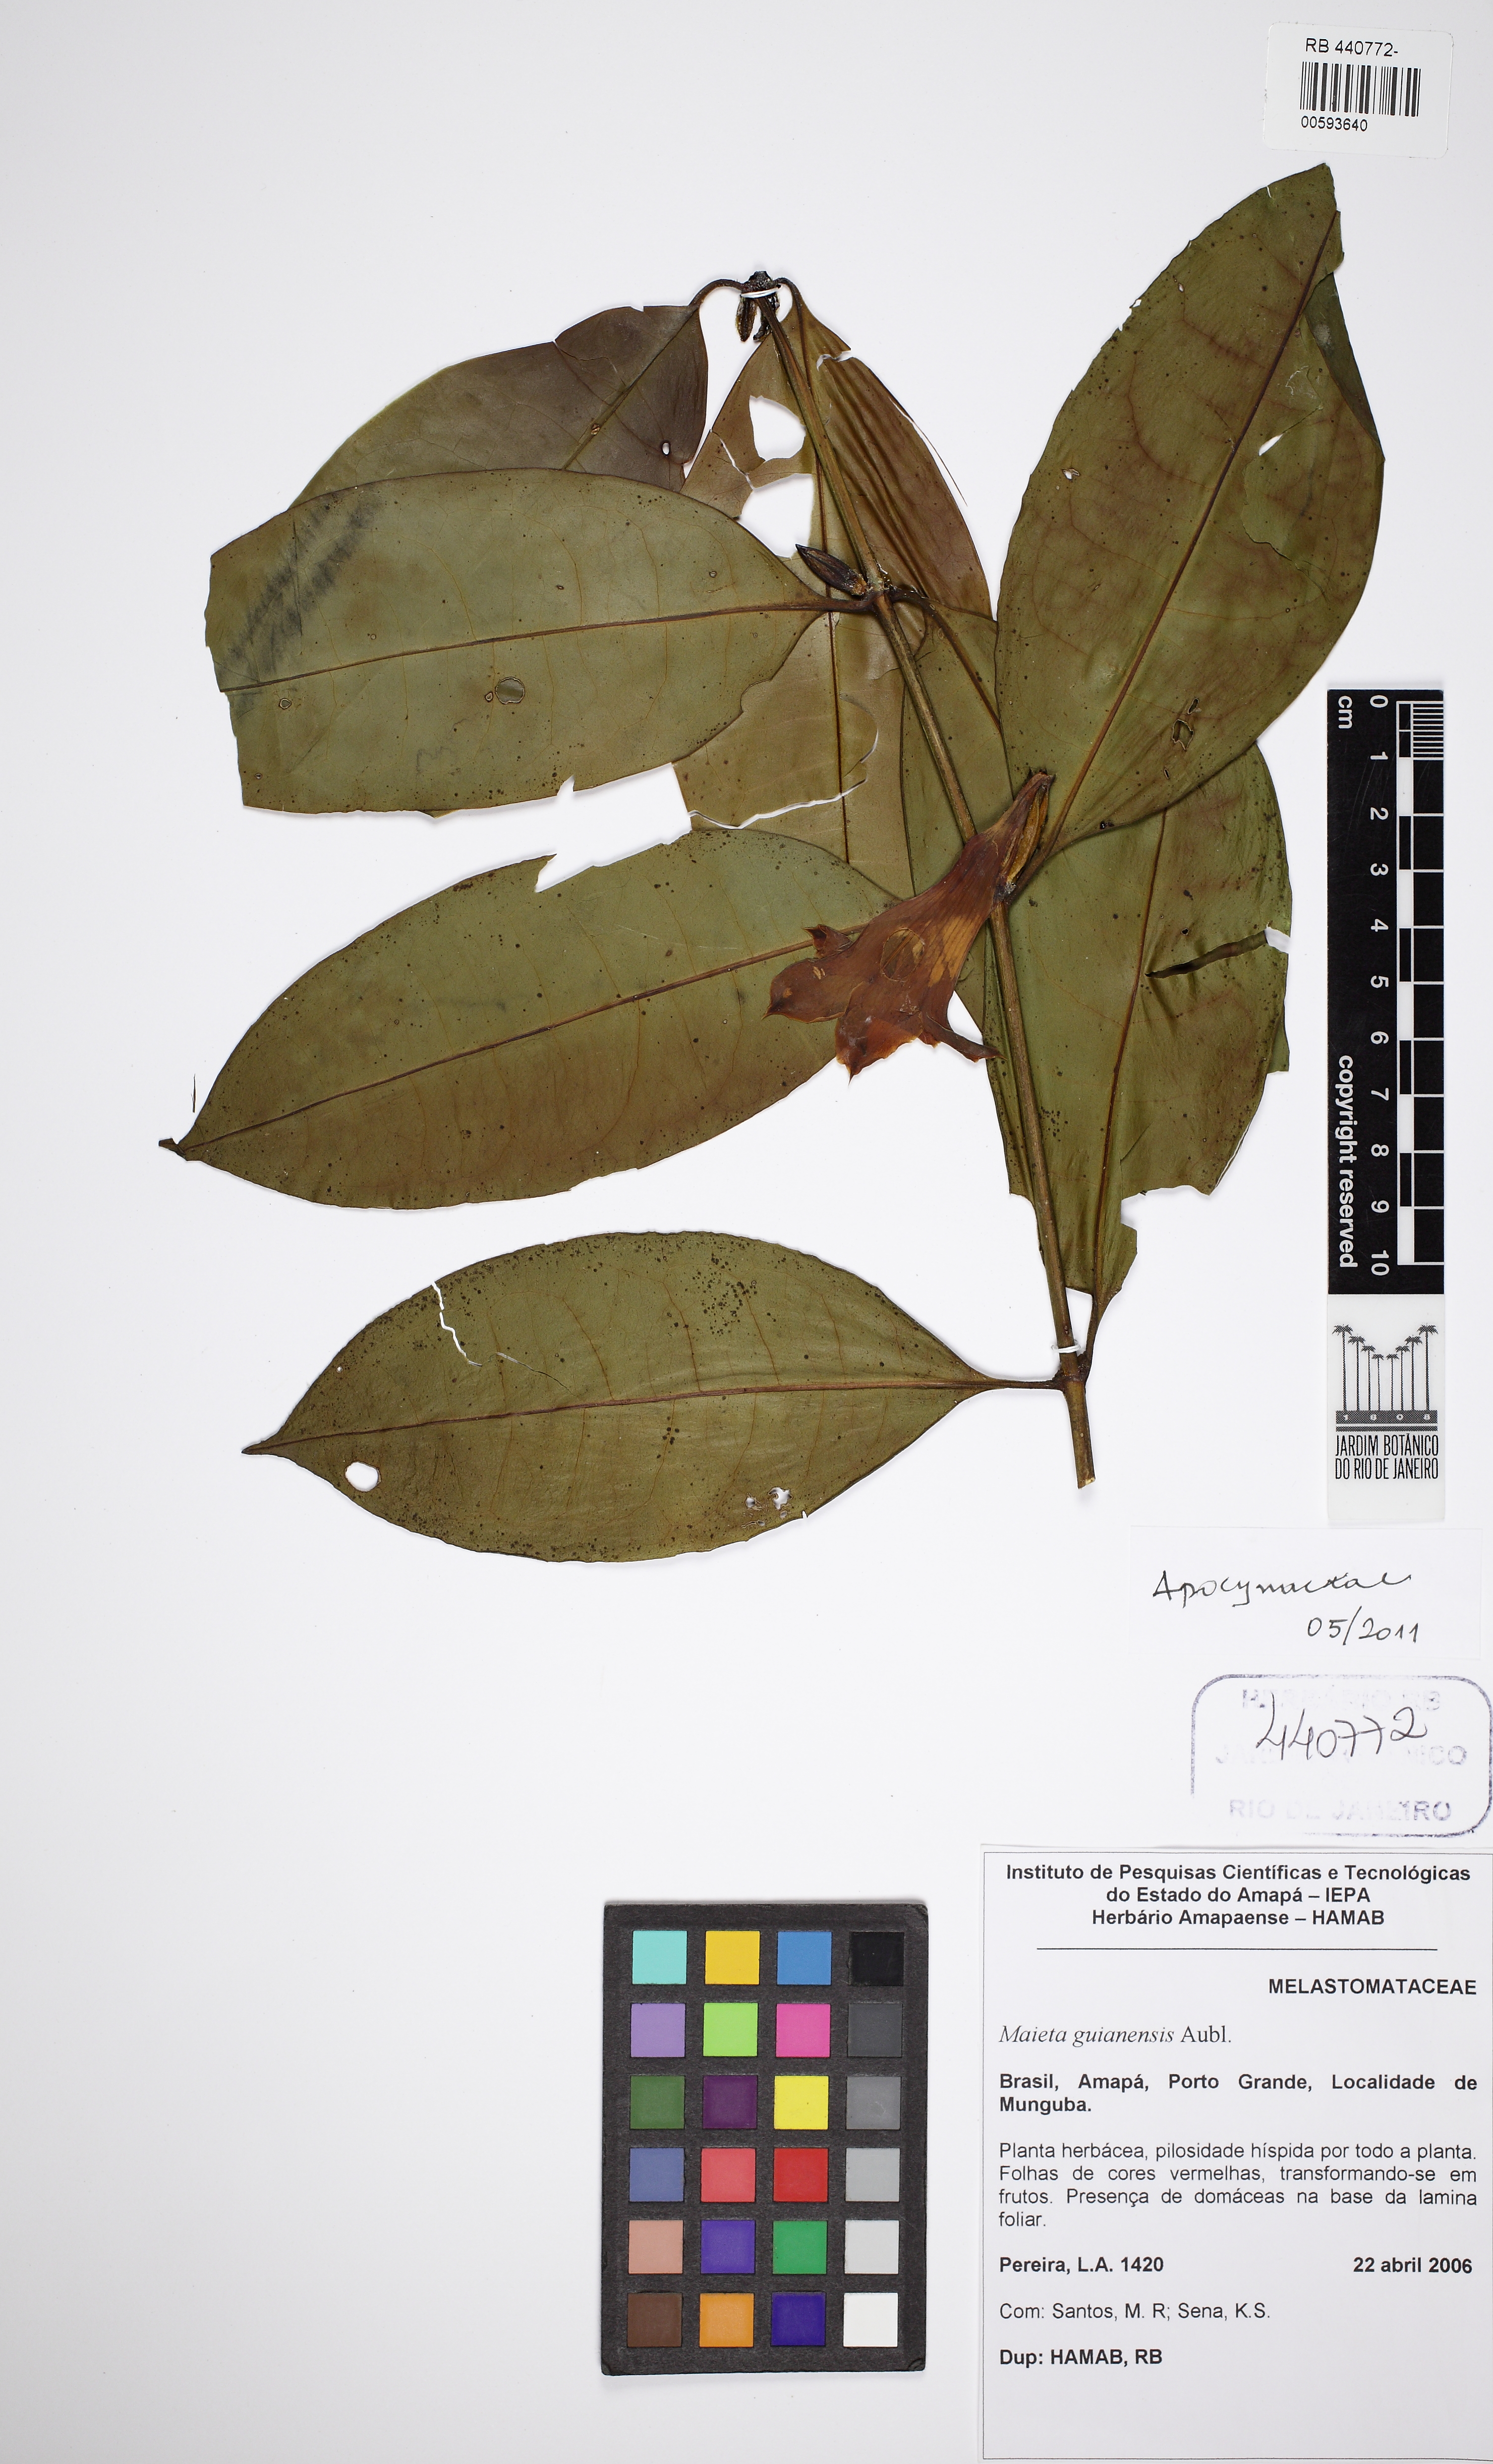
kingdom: Plantae
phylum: Tracheophyta
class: Magnoliopsida
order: Gentianales
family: Apocynaceae
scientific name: Apocynaceae
